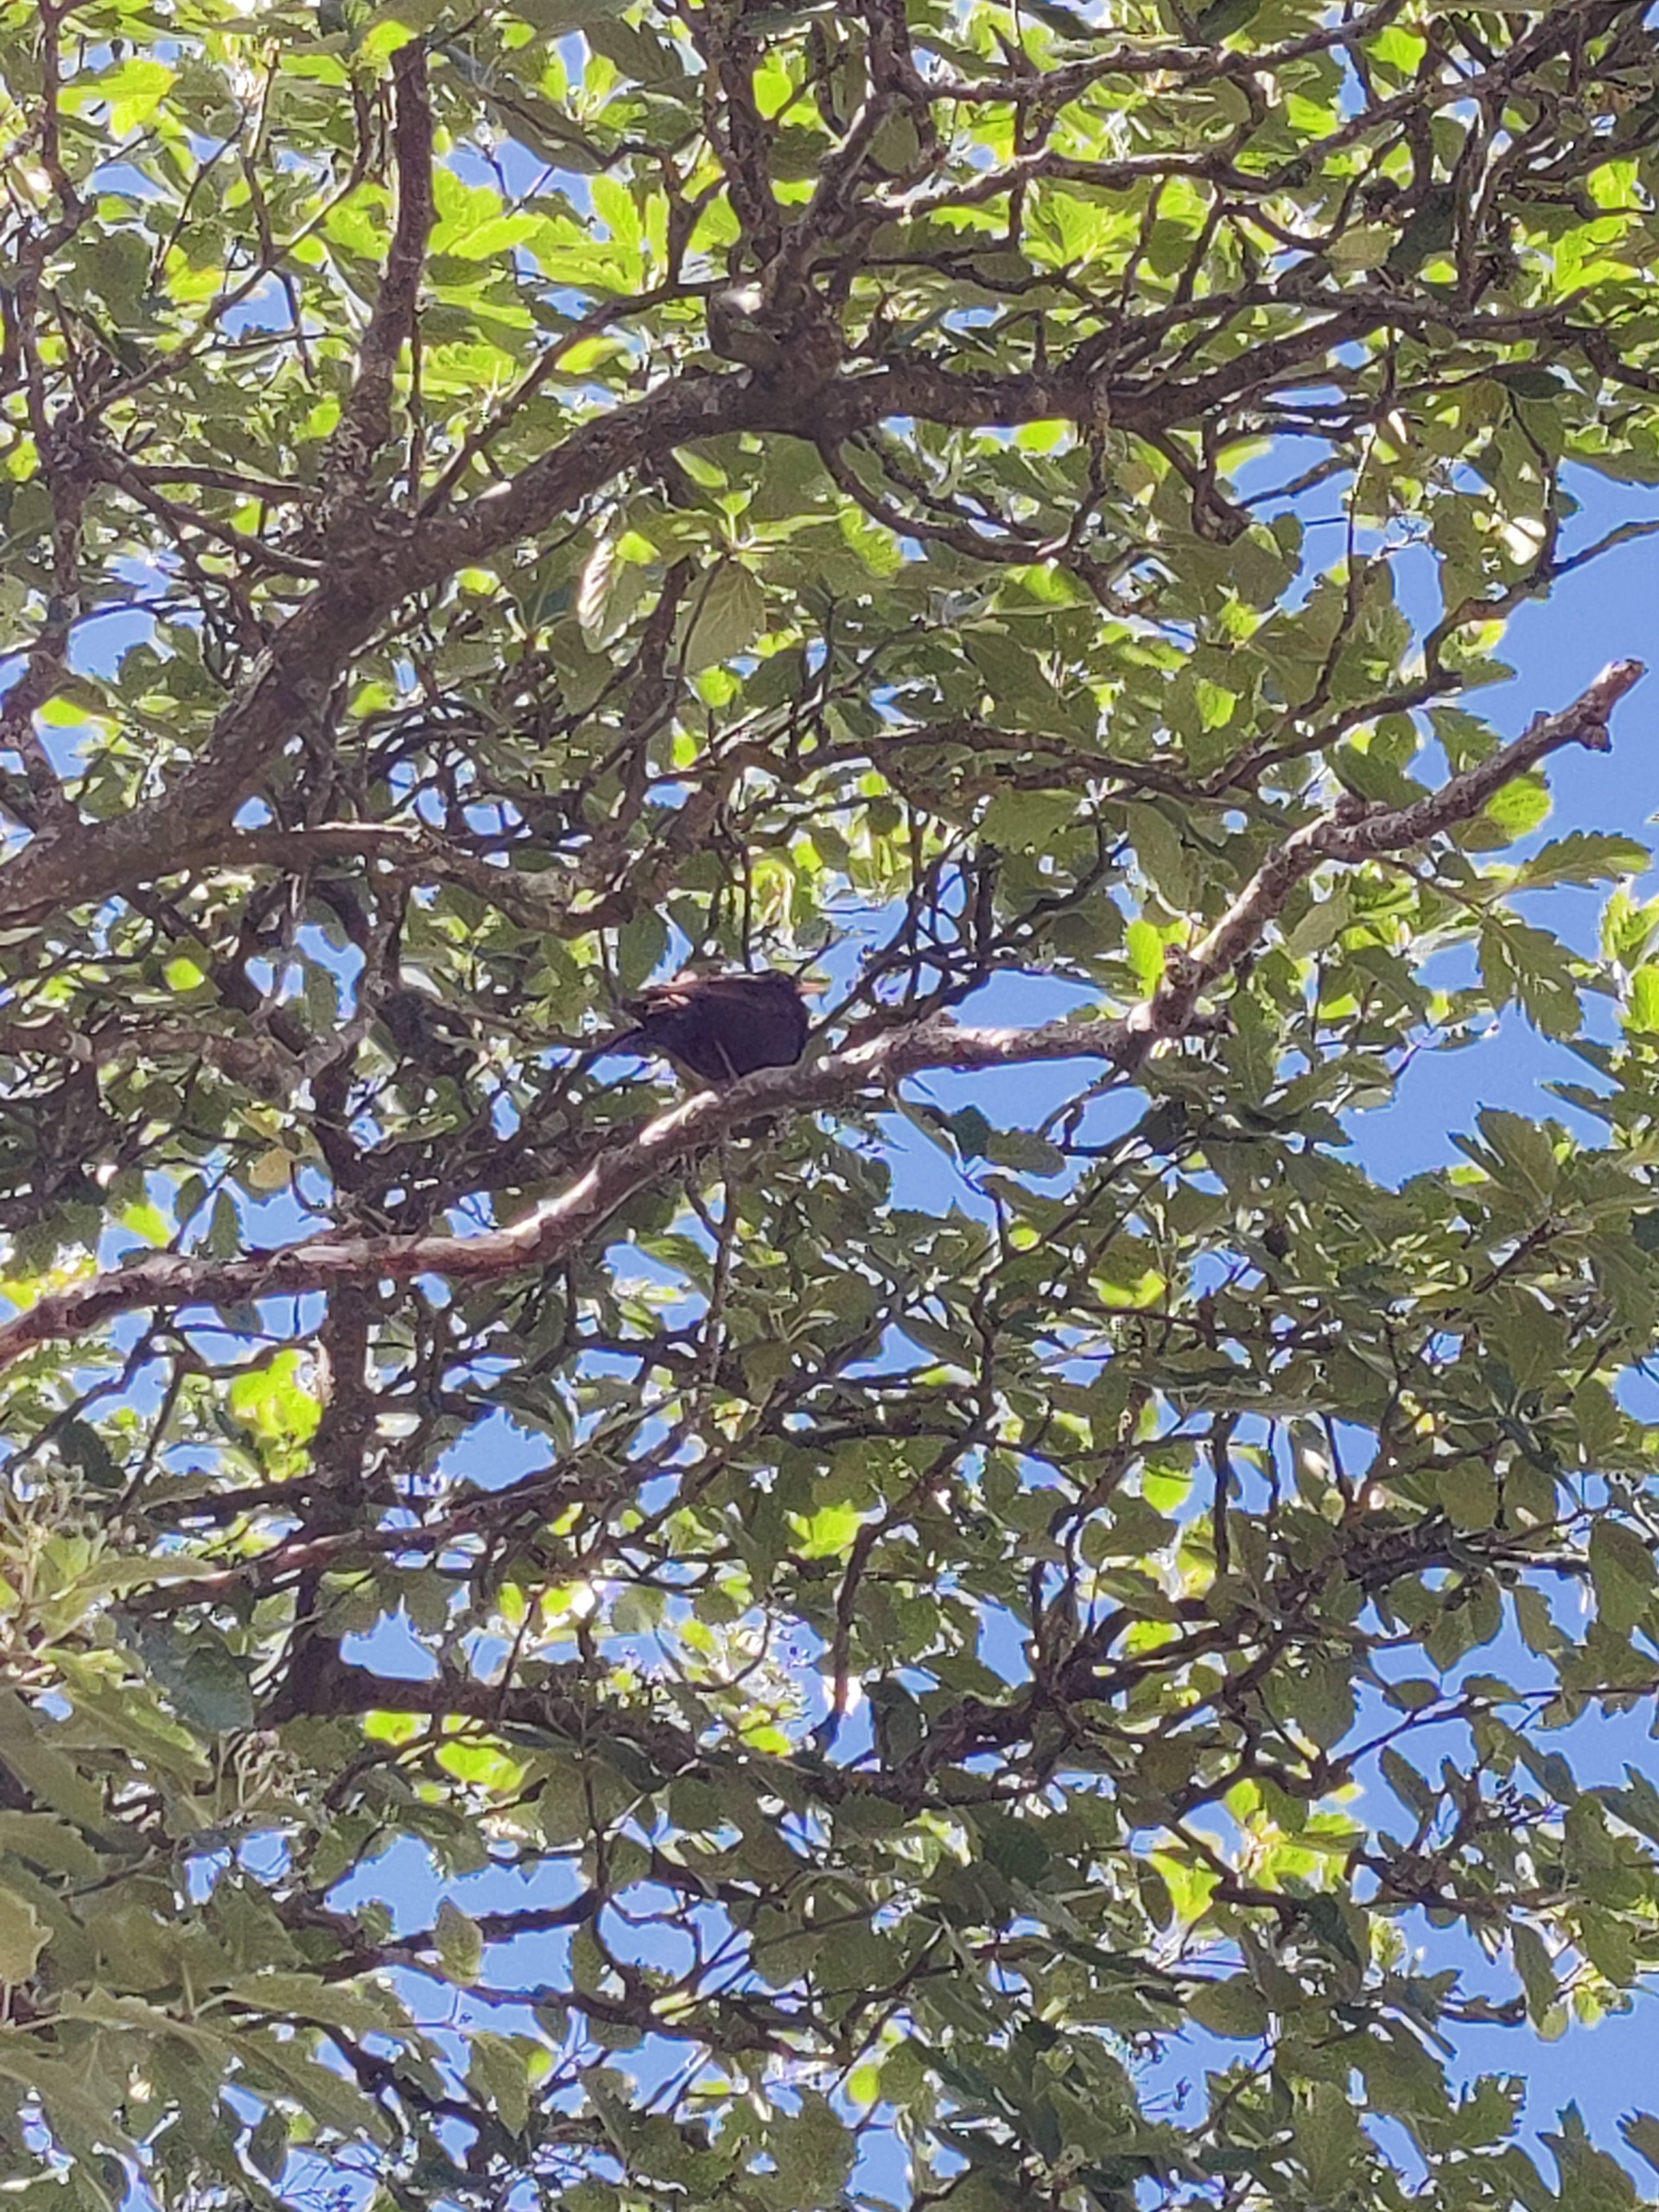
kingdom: Animalia
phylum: Chordata
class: Aves
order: Passeriformes
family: Turdidae
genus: Turdus
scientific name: Turdus merula
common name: Solsort
